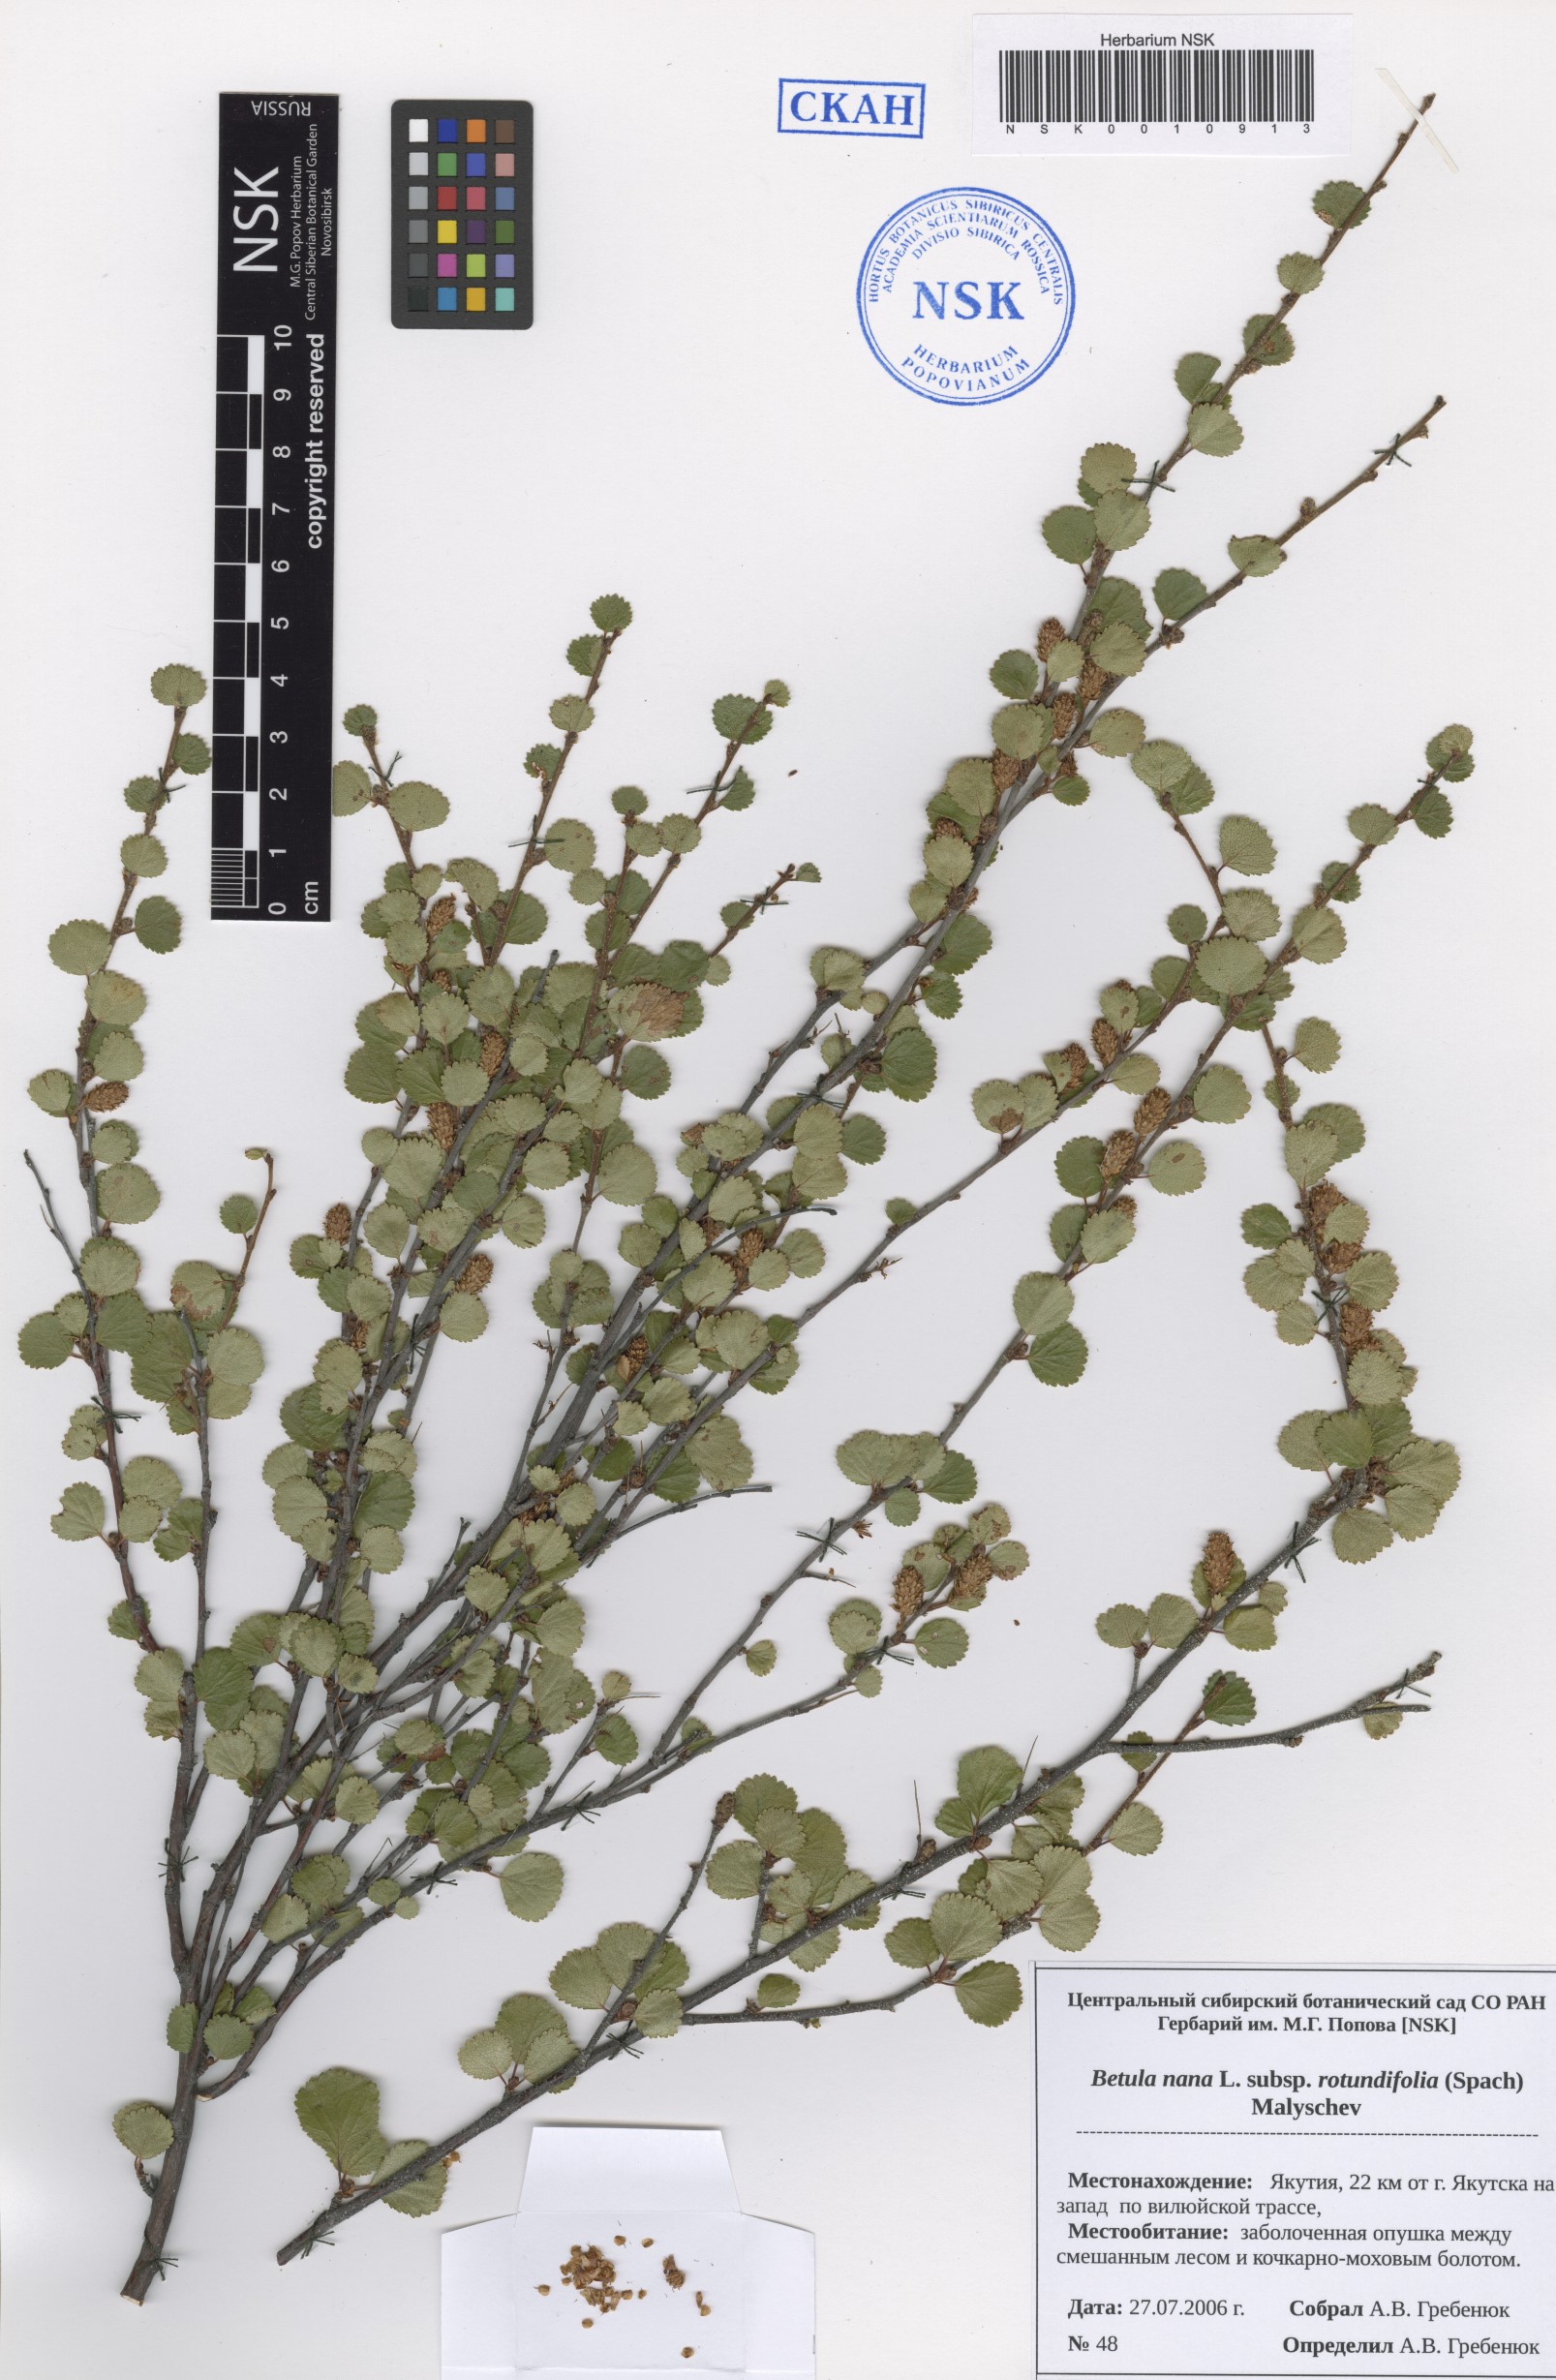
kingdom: Plantae
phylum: Tracheophyta
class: Magnoliopsida
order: Fagales
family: Betulaceae
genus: Betula
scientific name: Betula glandulosa
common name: Dwarf birch
